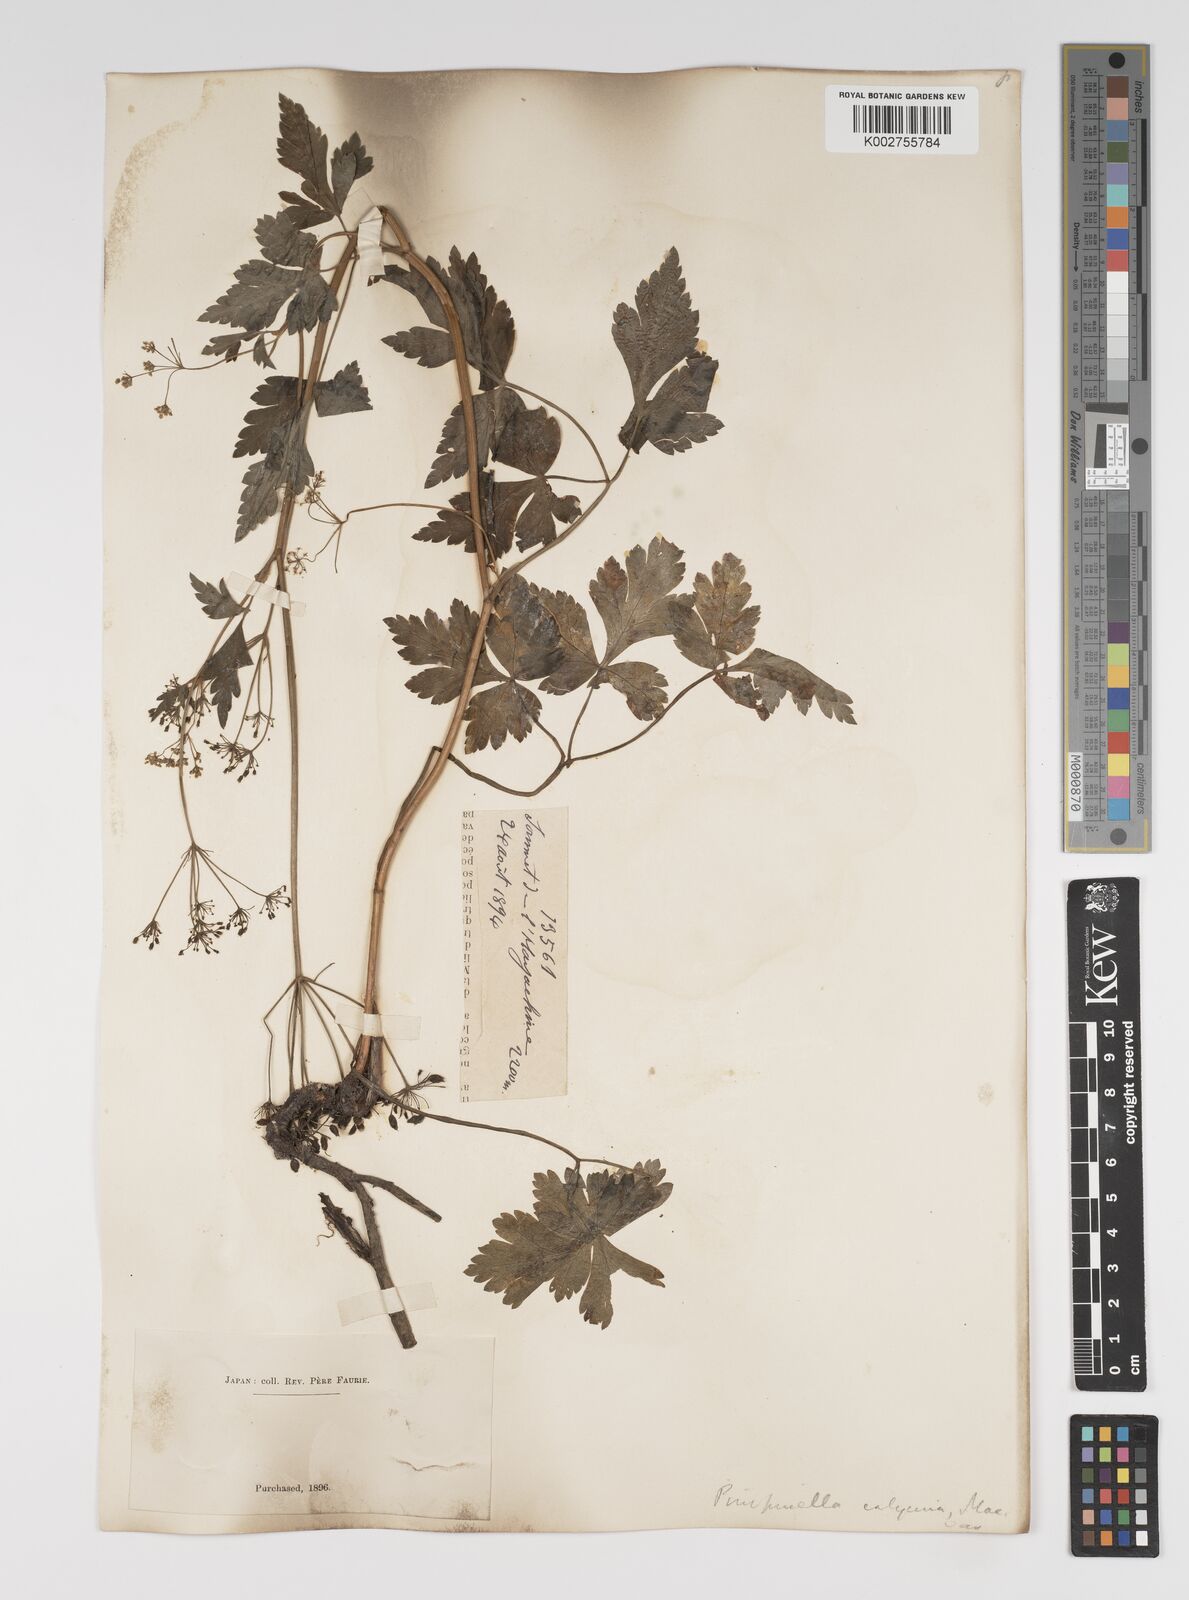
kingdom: Plantae
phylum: Tracheophyta
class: Magnoliopsida
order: Apiales
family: Apiaceae
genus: Spuriopimpinella
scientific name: Spuriopimpinella calycina
